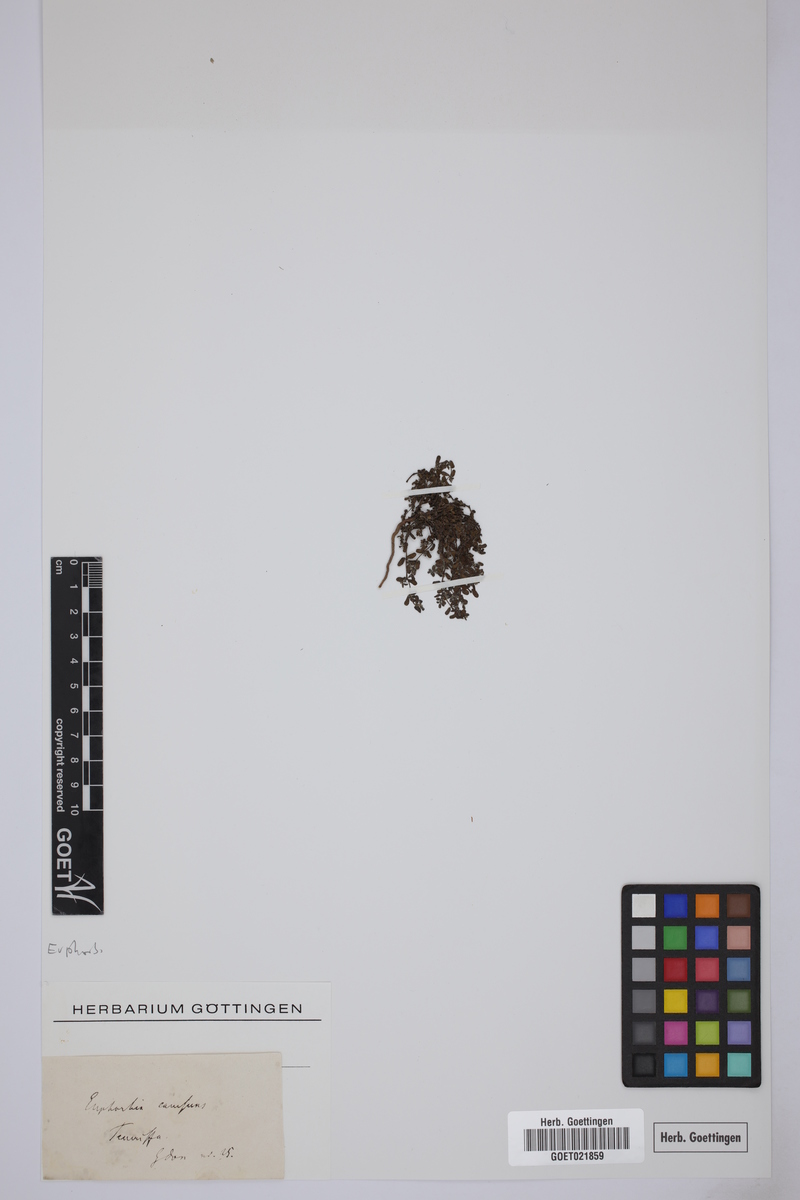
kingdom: Plantae
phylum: Tracheophyta
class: Magnoliopsida
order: Malpighiales
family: Euphorbiaceae
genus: Euphorbia
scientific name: Euphorbia
